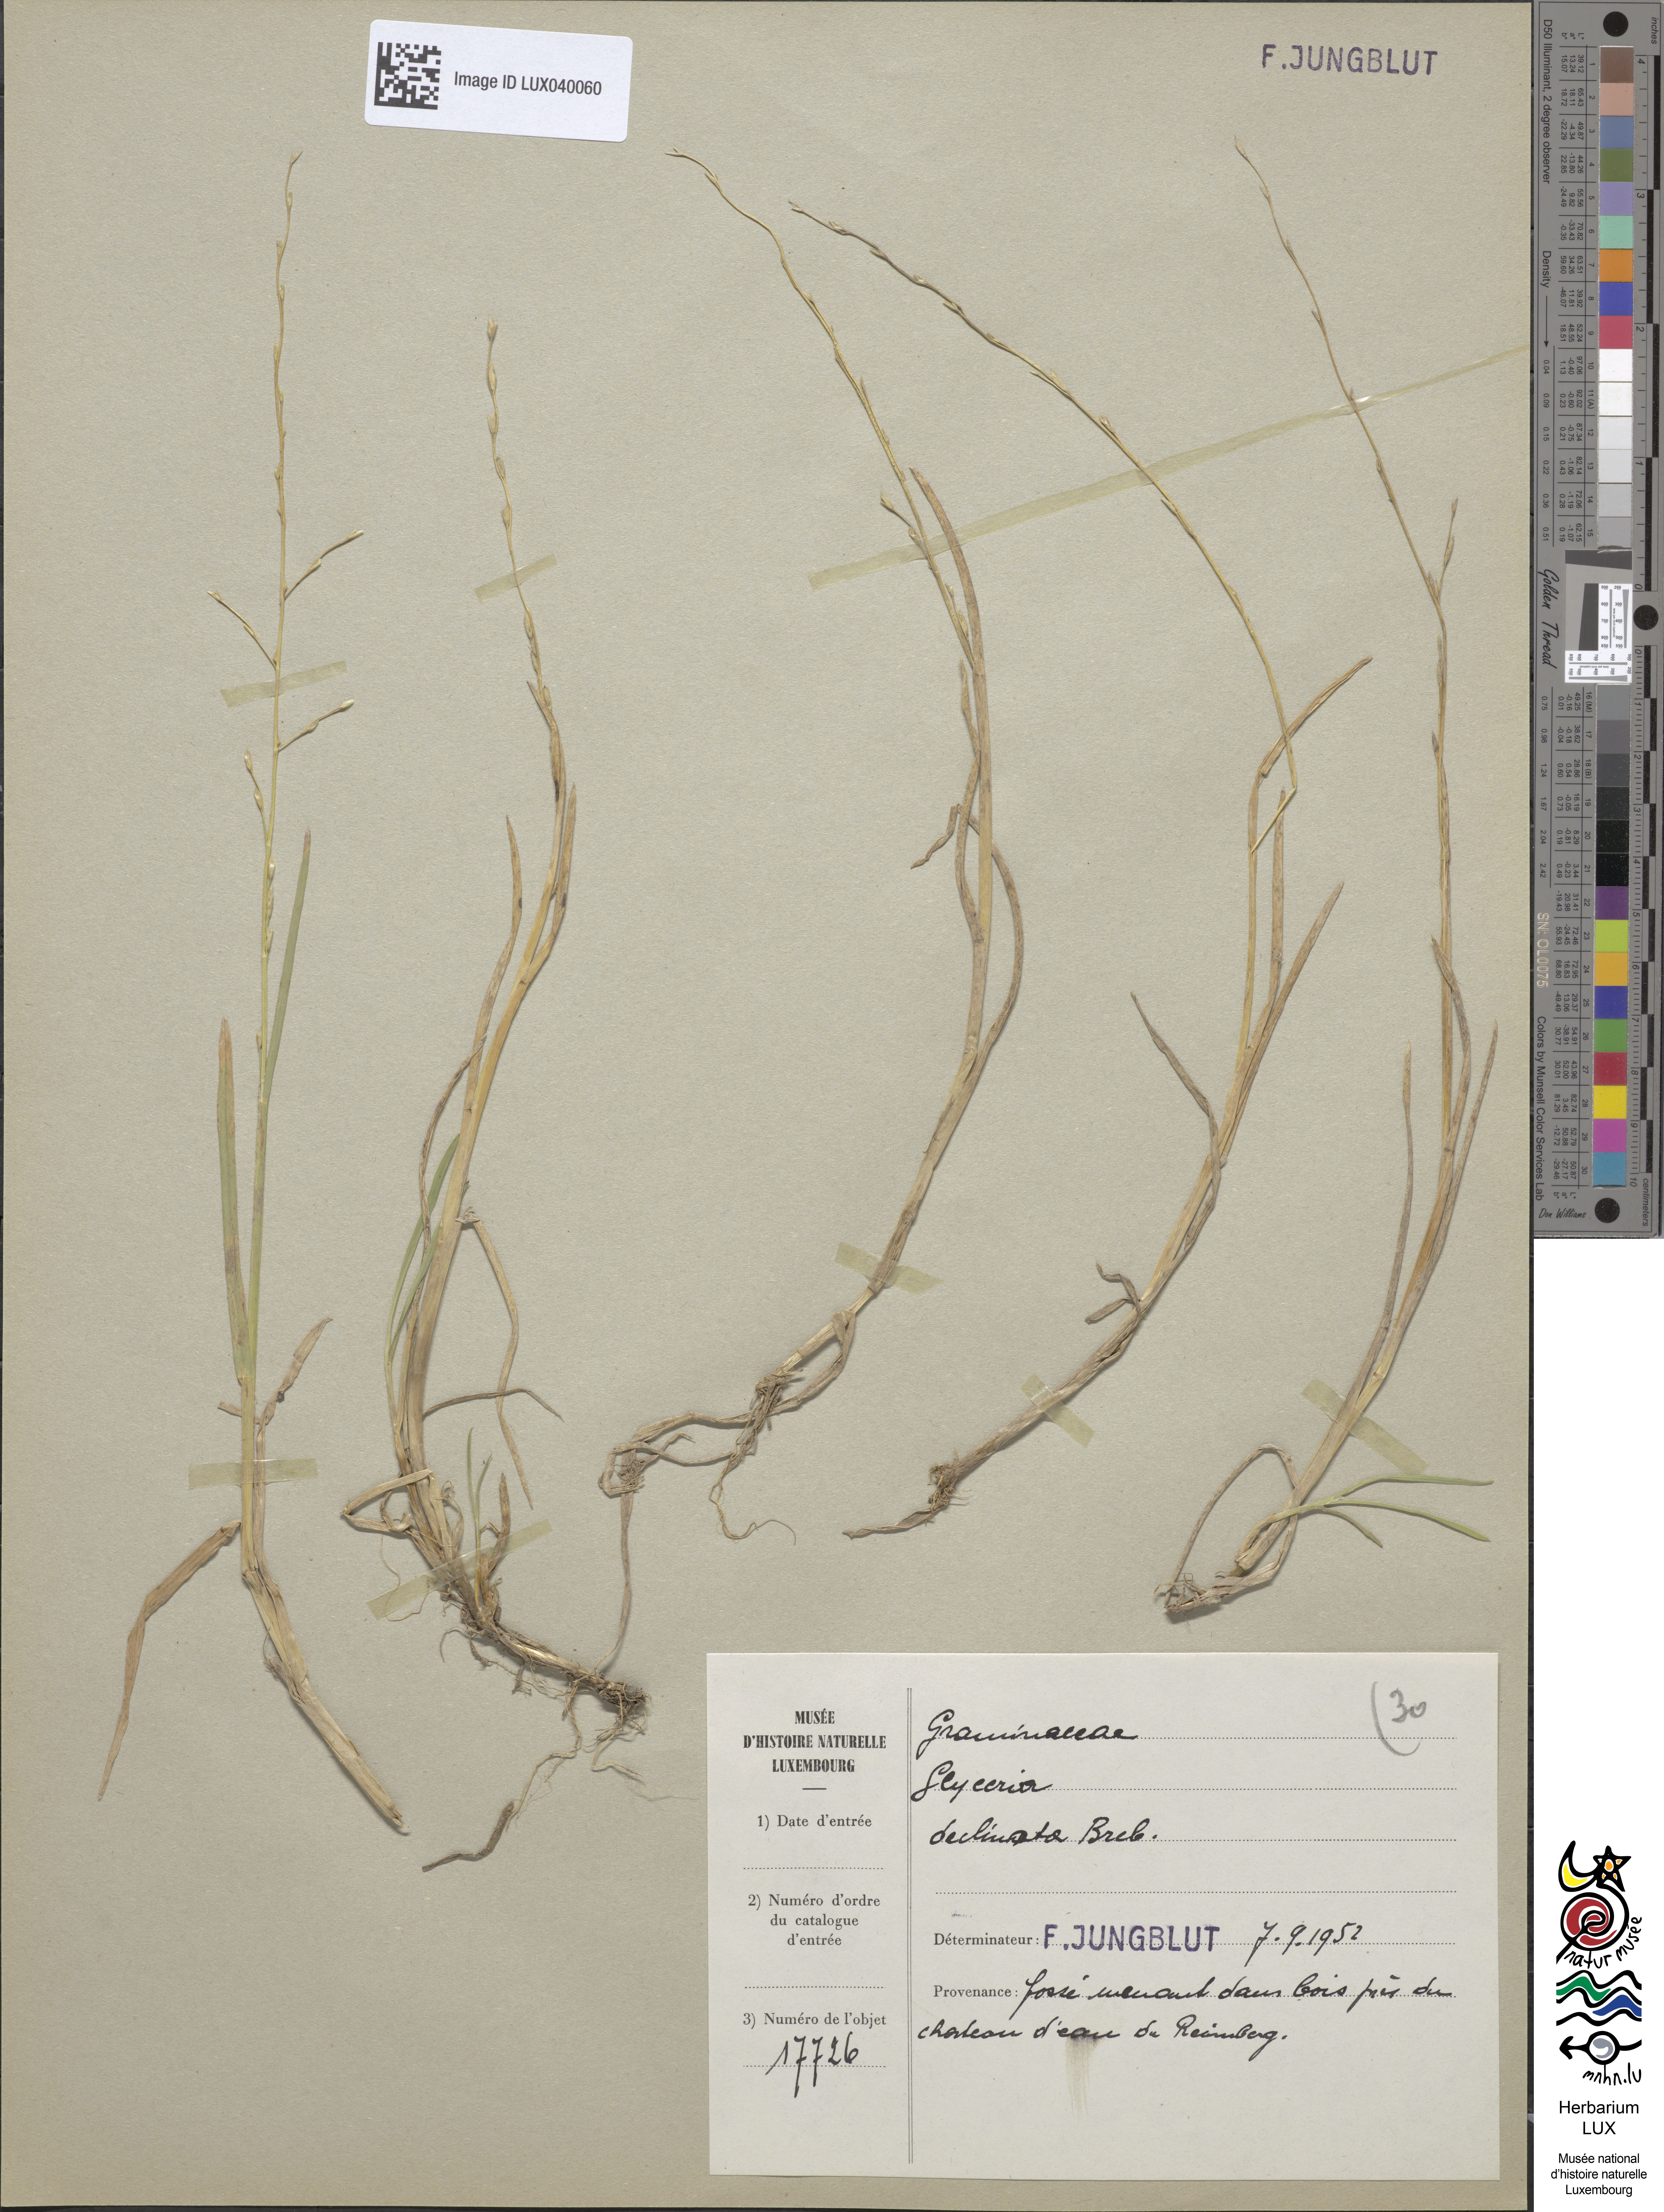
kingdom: Plantae
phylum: Tracheophyta
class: Liliopsida
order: Poales
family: Poaceae
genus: Glyceria
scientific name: Glyceria declinata
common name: Small sweet-grass
